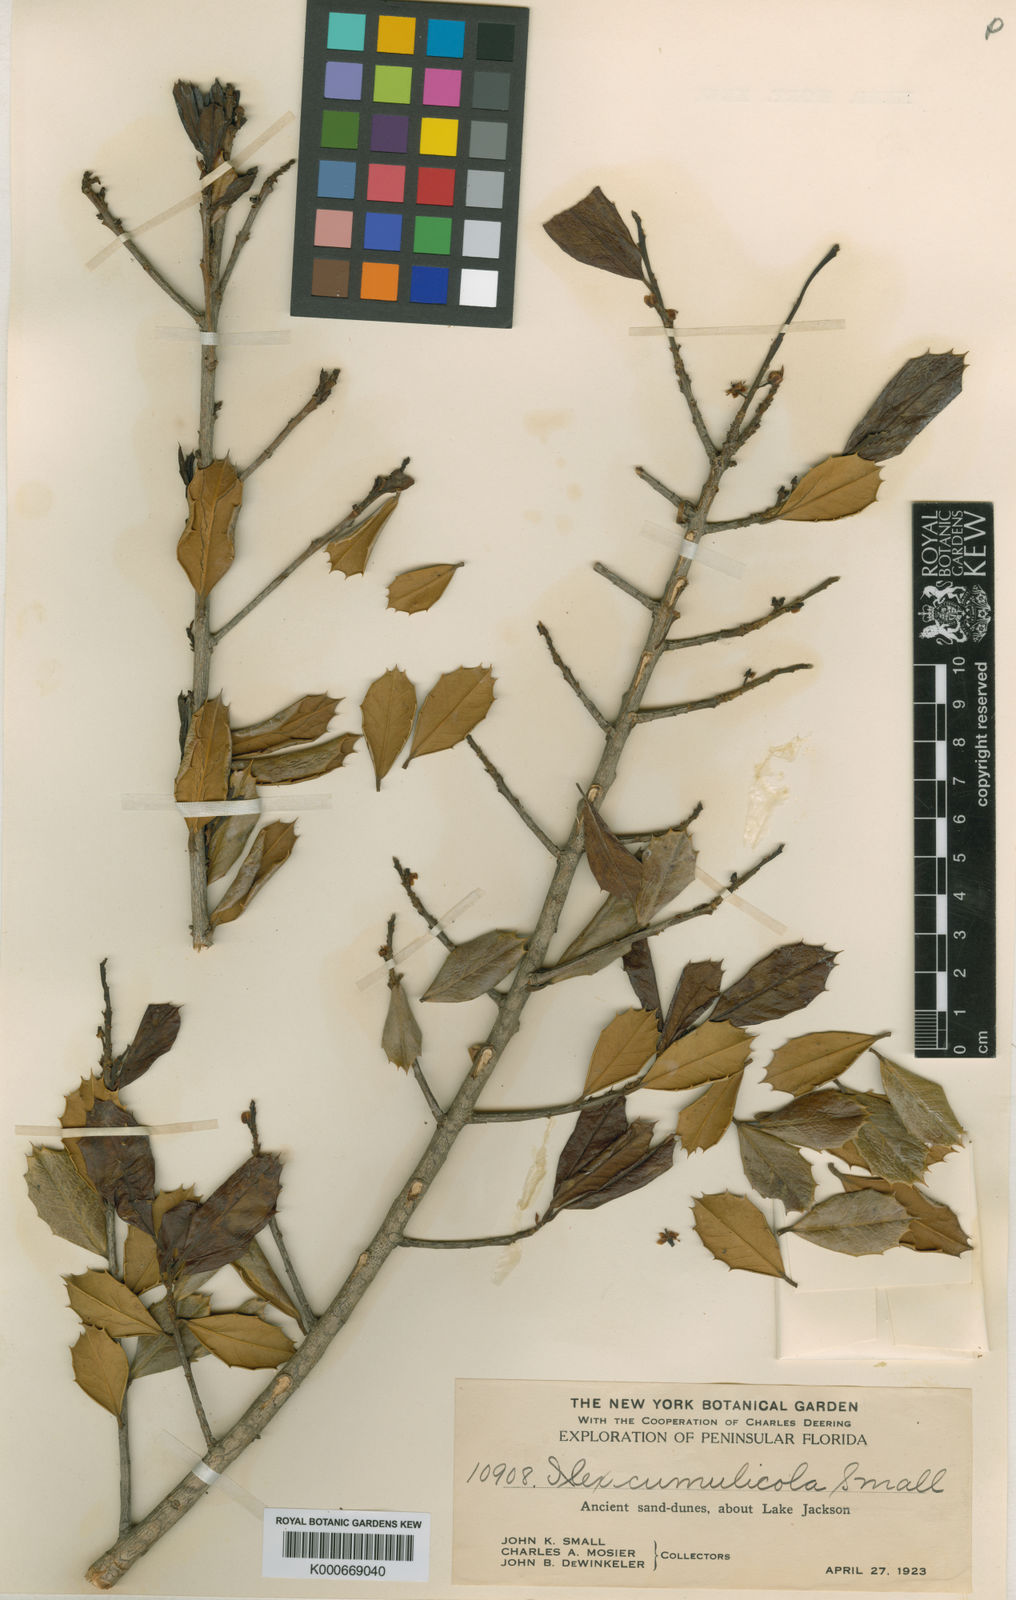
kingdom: Plantae
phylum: Tracheophyta
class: Magnoliopsida
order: Aquifoliales
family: Aquifoliaceae
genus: Ilex
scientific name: Ilex opaca
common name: American holly
